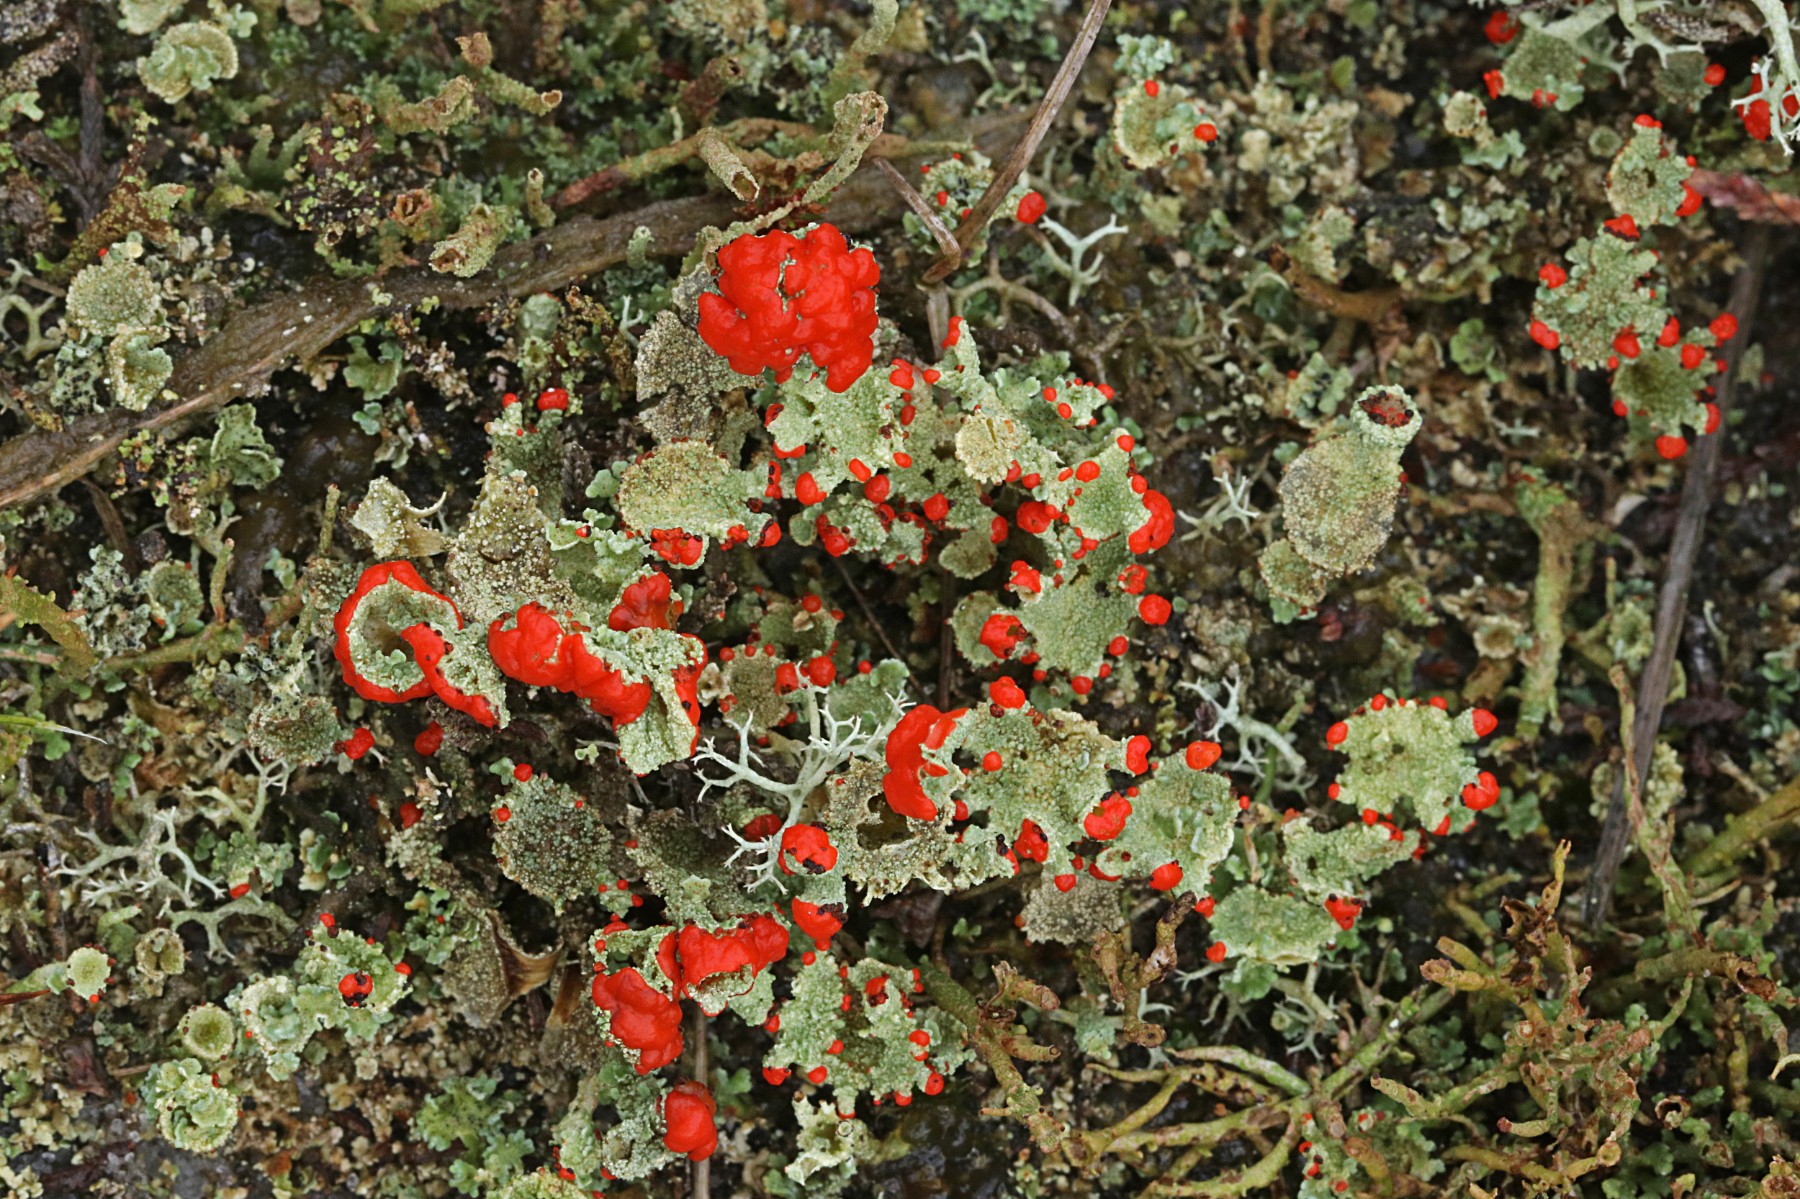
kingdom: Fungi
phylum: Ascomycota
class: Lecanoromycetes
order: Lecanorales
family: Cladoniaceae
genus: Cladonia
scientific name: Cladonia diversa
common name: rød bægerlav
